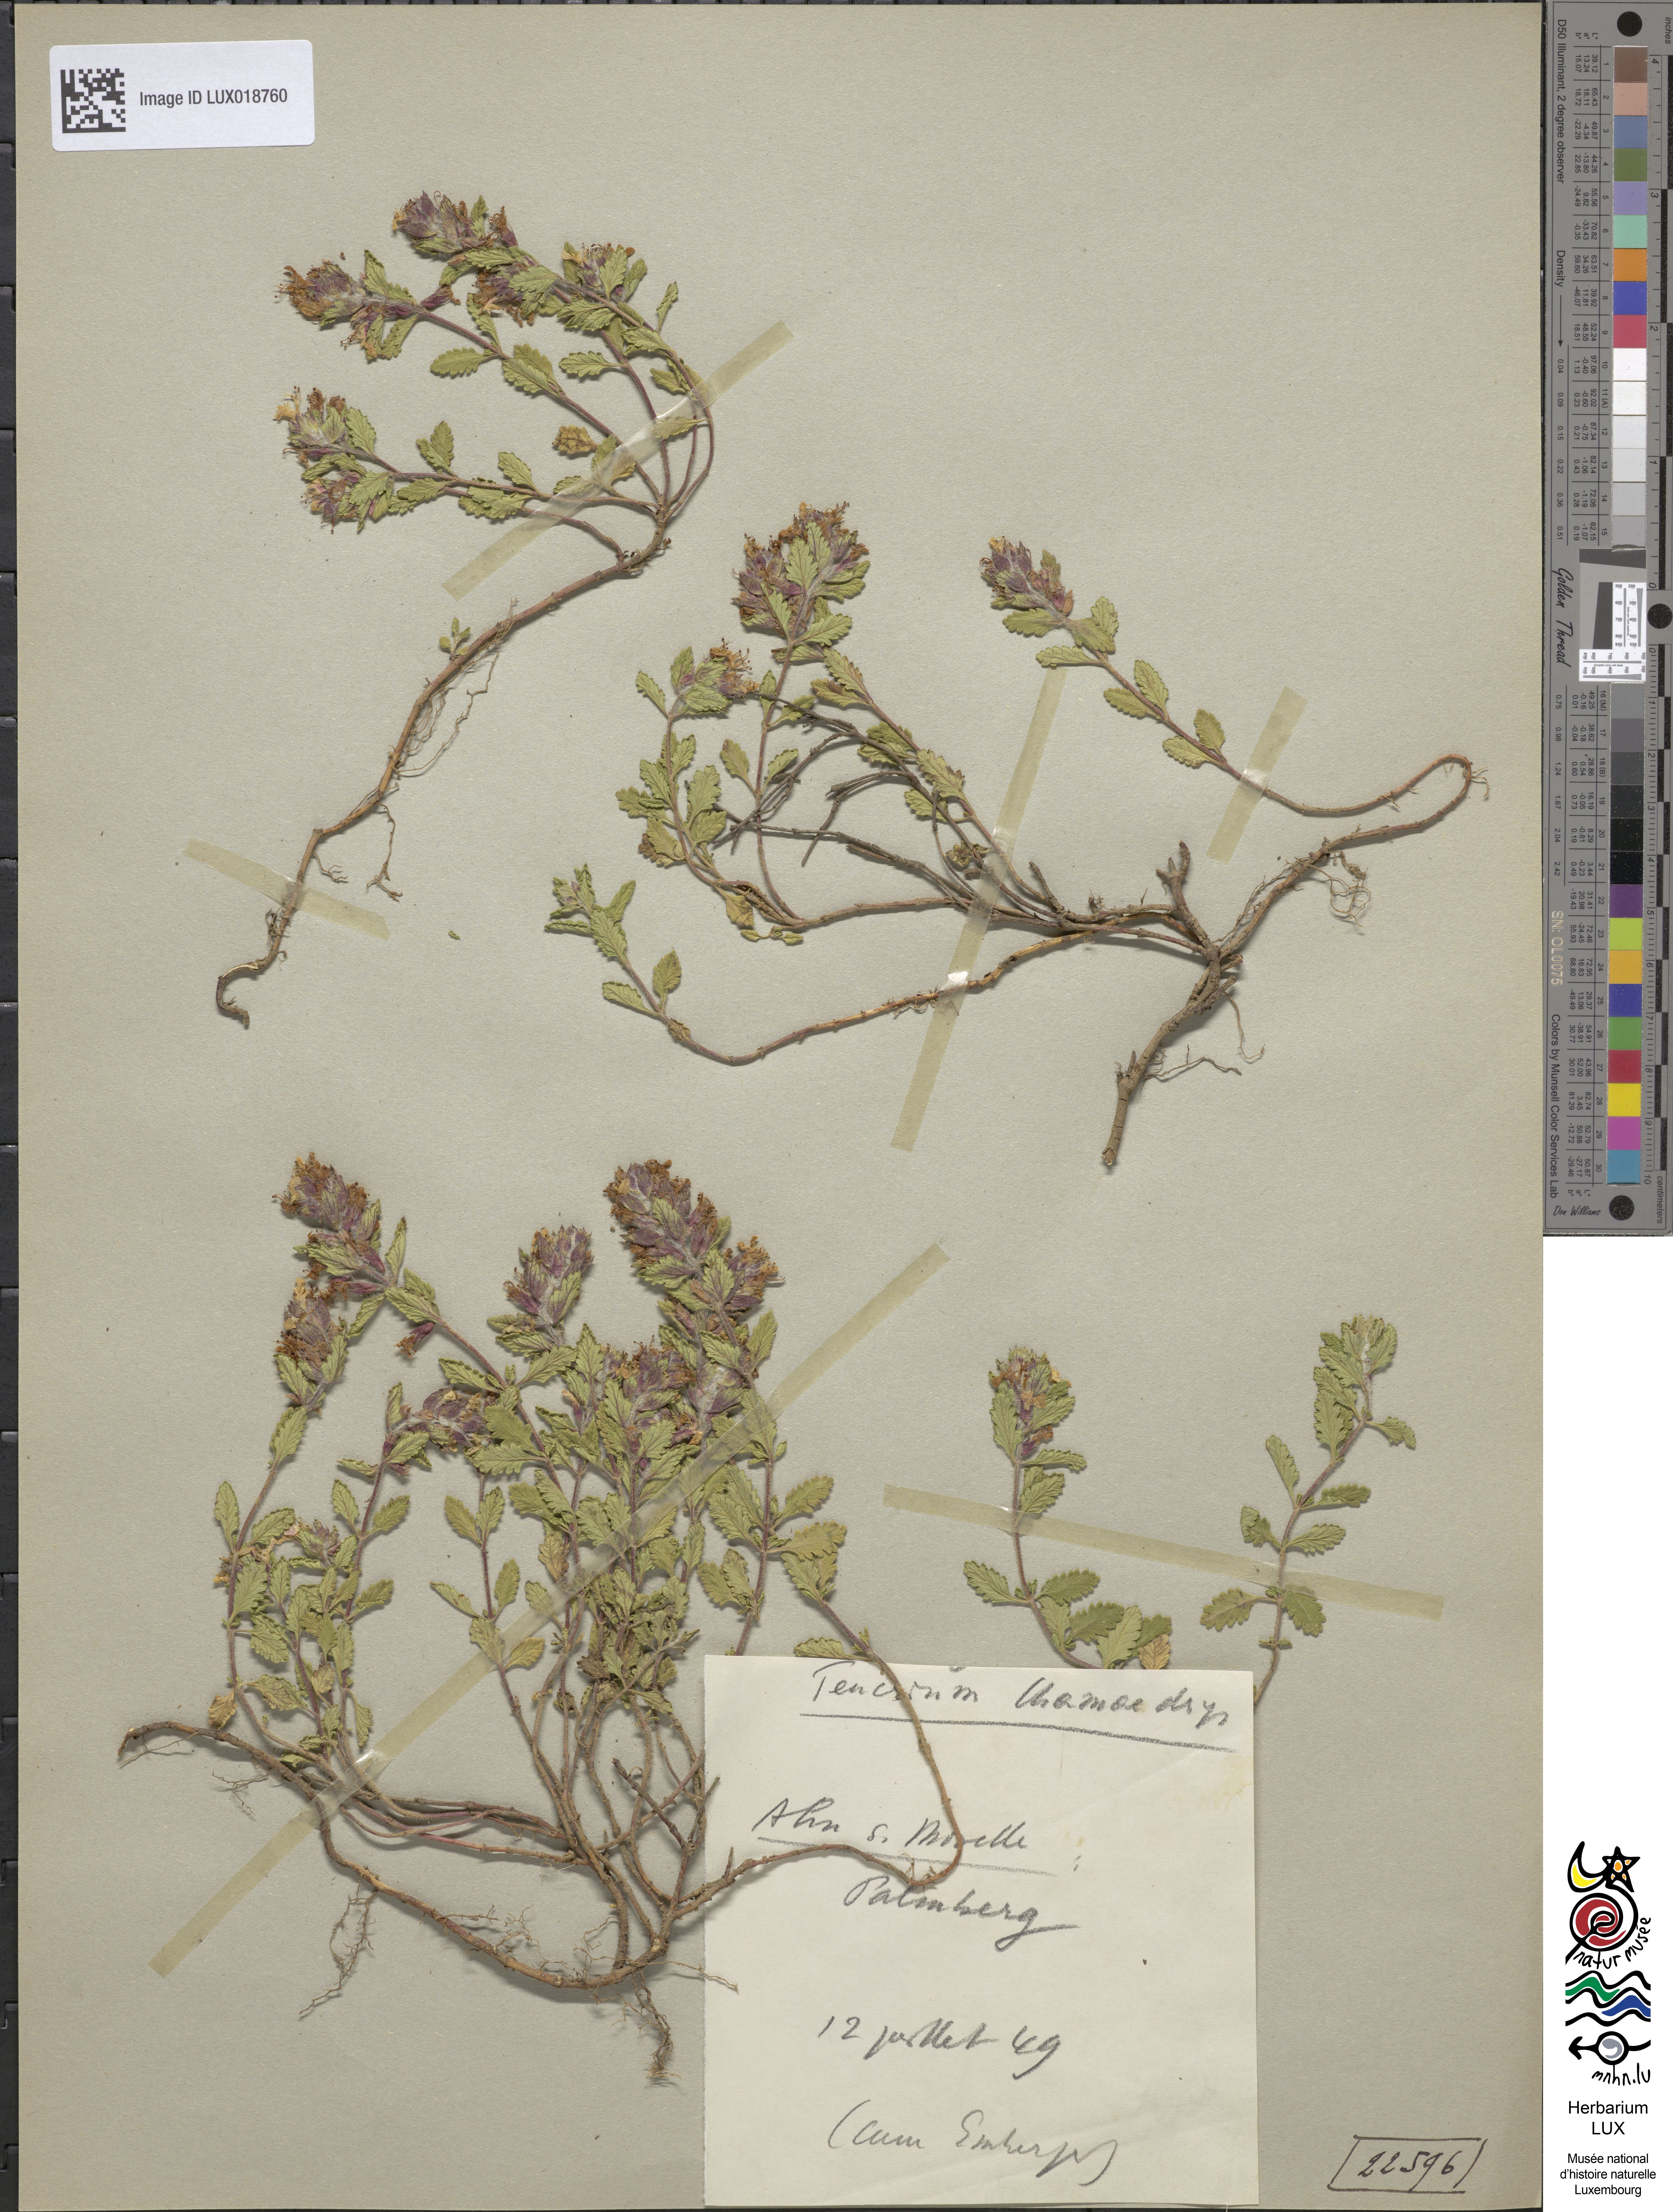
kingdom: Plantae
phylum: Tracheophyta
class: Magnoliopsida
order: Lamiales
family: Lamiaceae
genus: Teucrium
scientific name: Teucrium chamaedrys
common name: Wall germander
